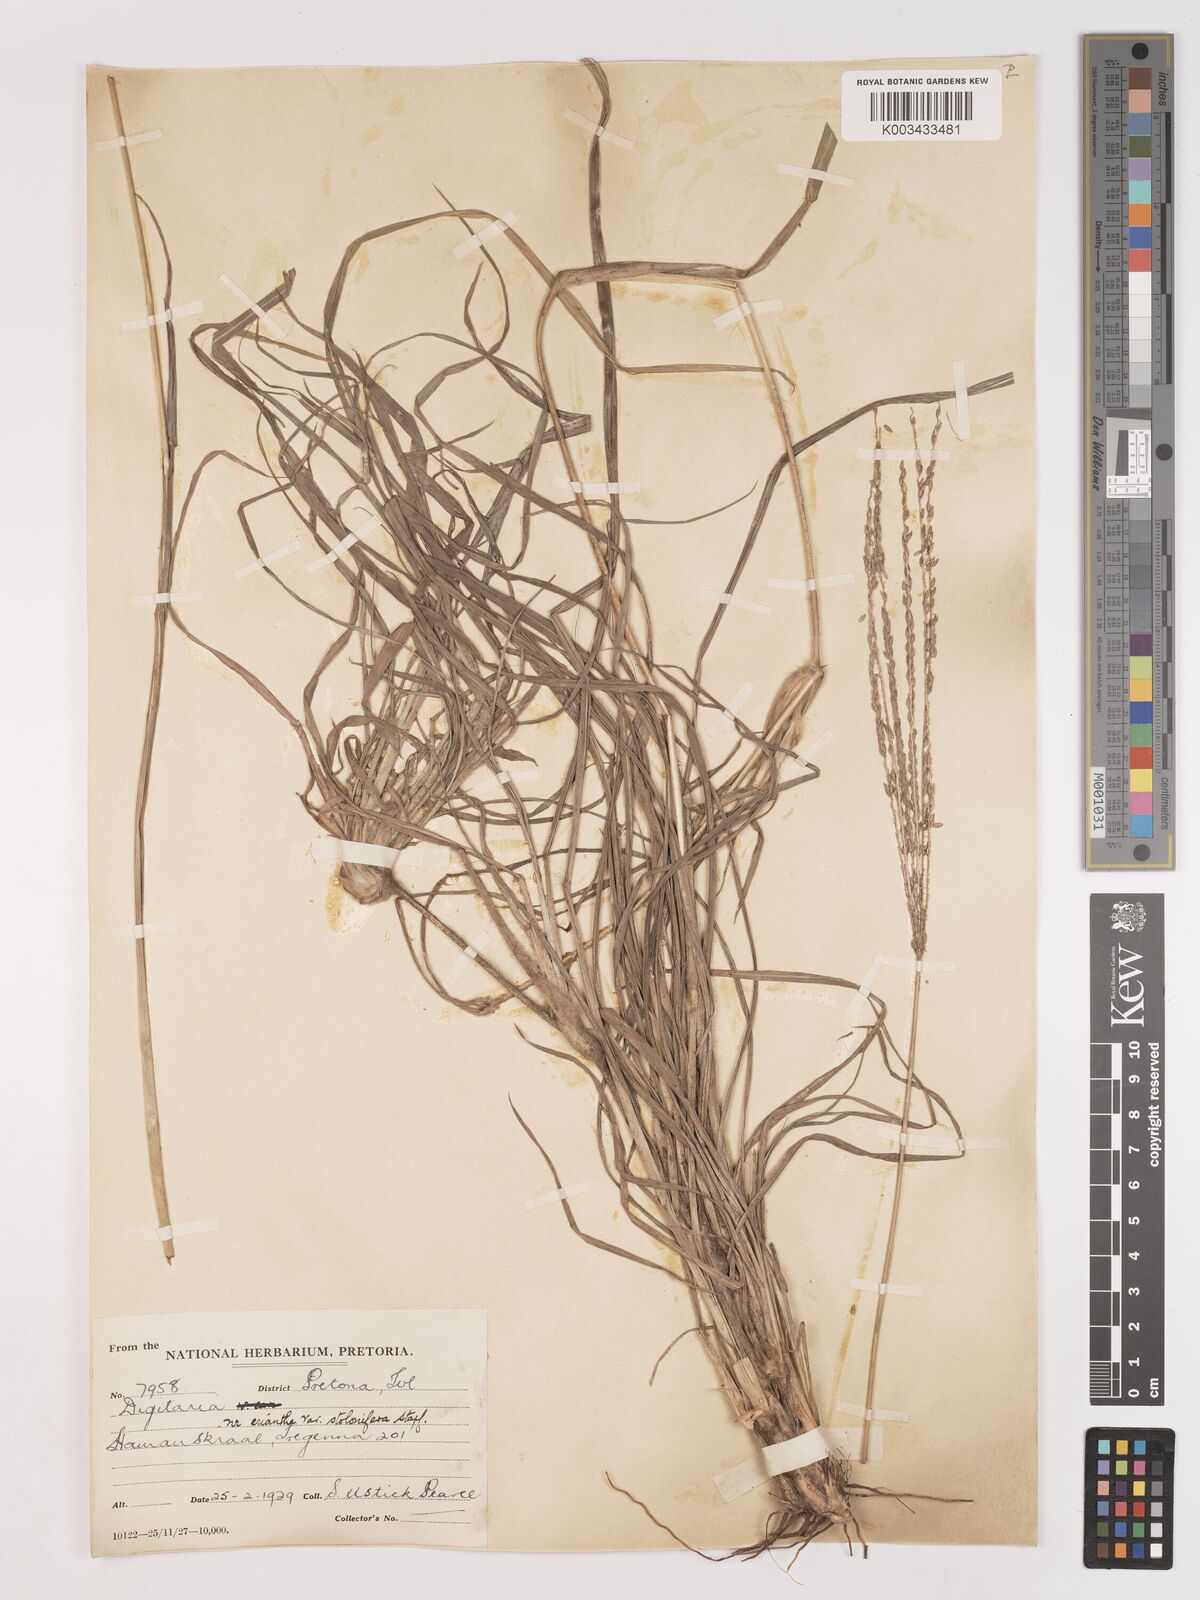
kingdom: Plantae
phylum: Tracheophyta
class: Liliopsida
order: Poales
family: Poaceae
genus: Digitaria
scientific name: Digitaria eriantha
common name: Digitgrass
